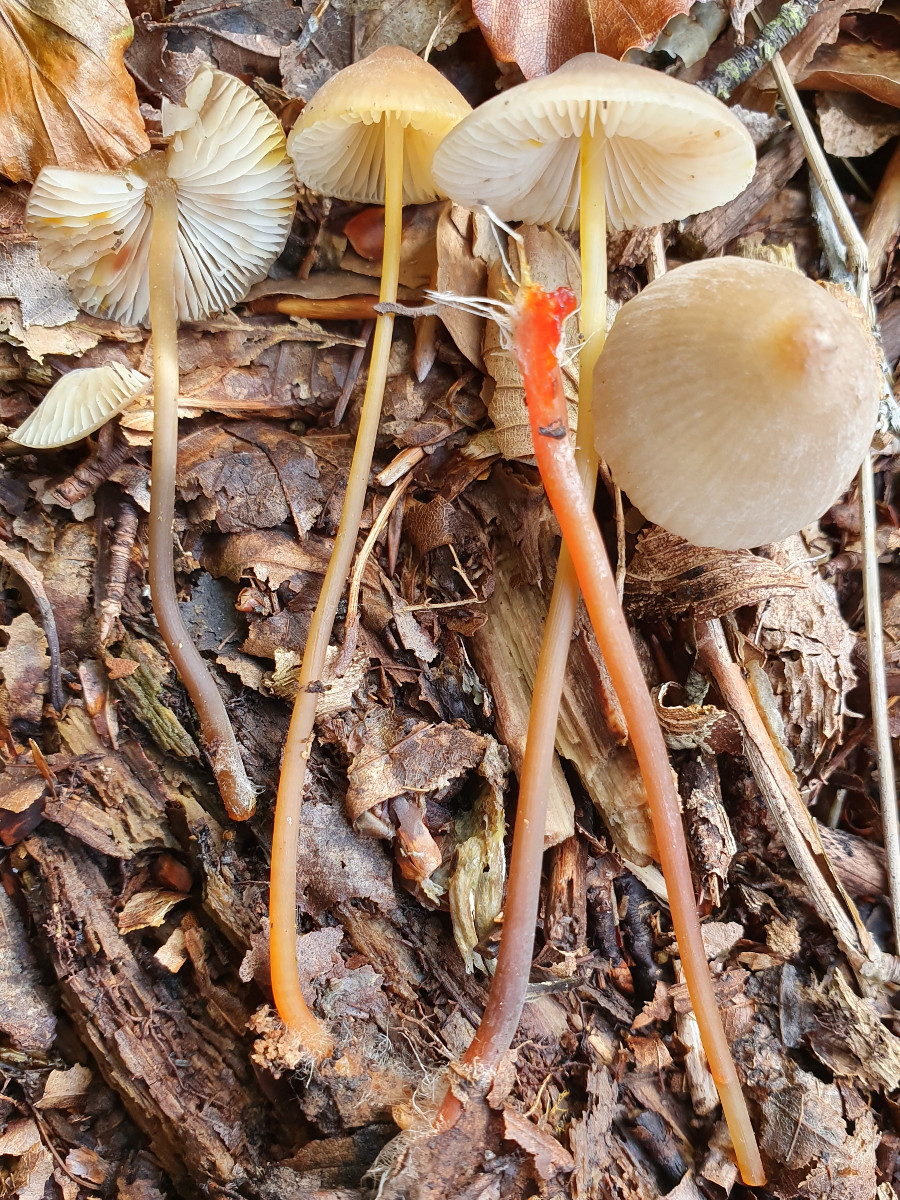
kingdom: Fungi
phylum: Basidiomycota
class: Agaricomycetes
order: Agaricales
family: Mycenaceae
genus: Mycena
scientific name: Mycena crocata
